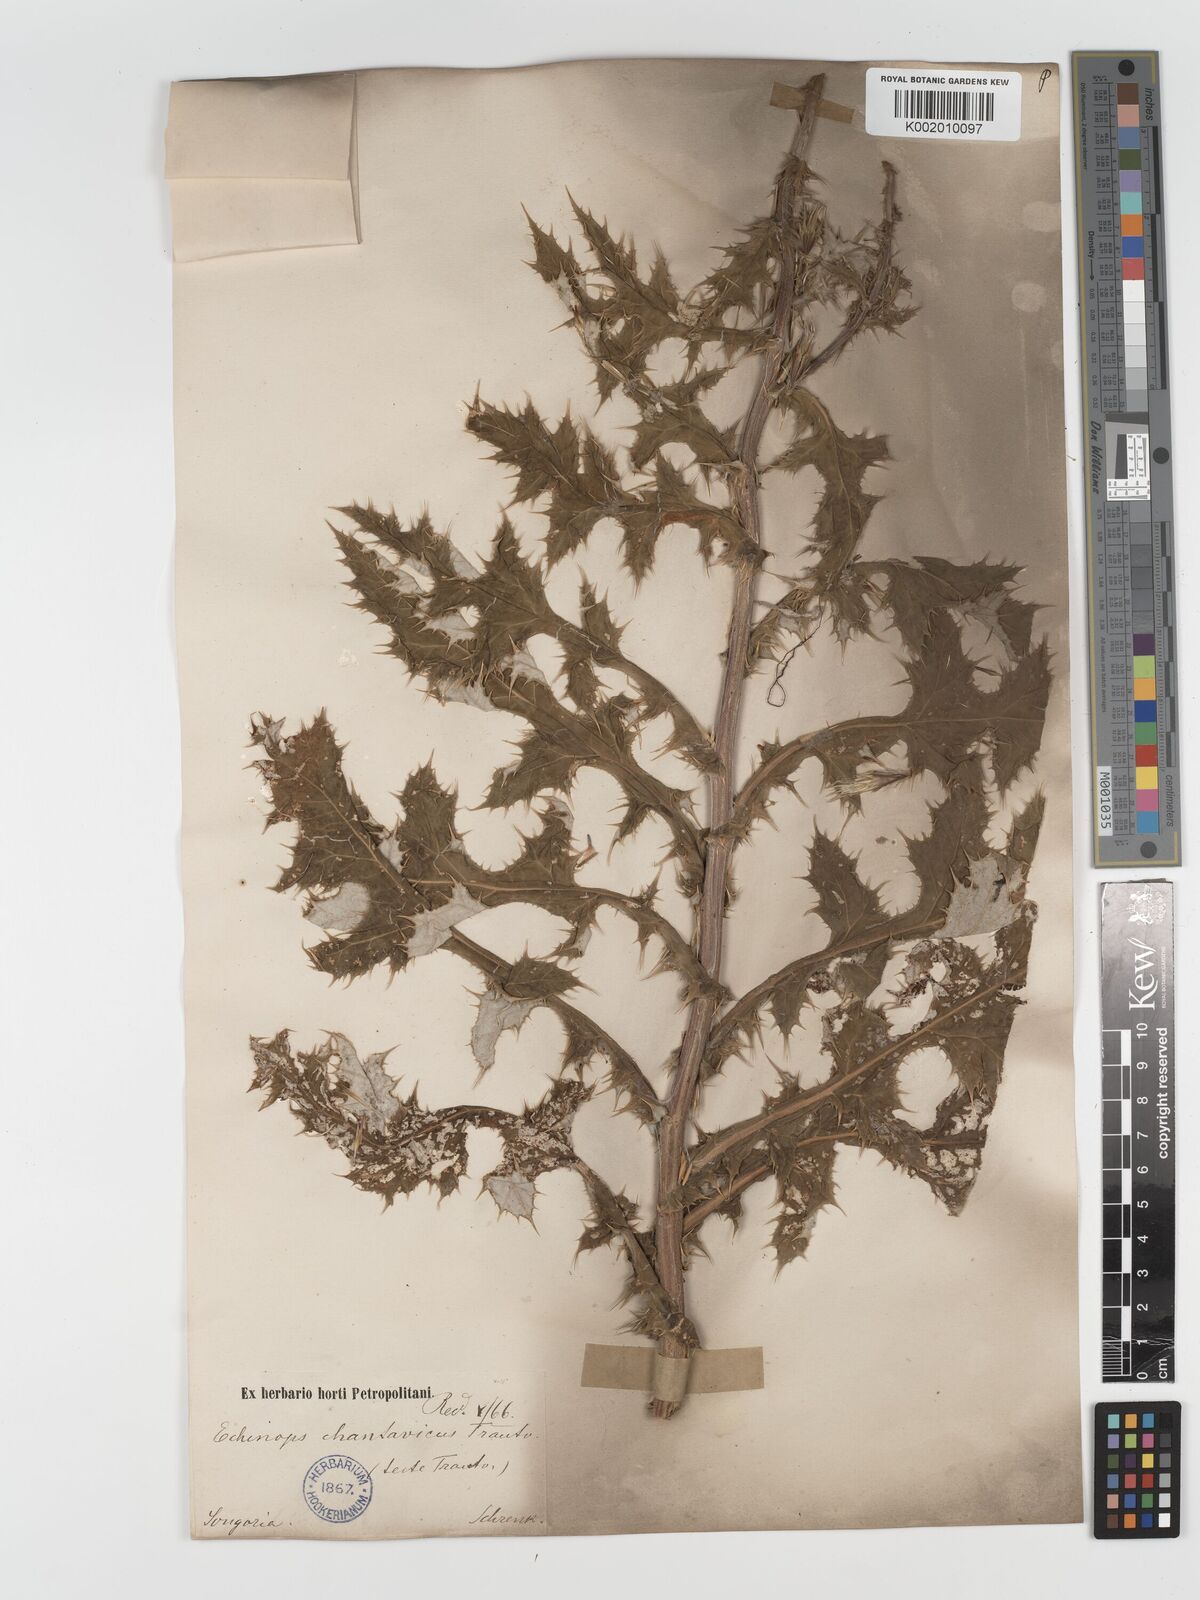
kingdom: Plantae
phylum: Tracheophyta
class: Magnoliopsida
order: Asterales
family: Asteraceae
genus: Echinops
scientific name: Echinops chantavicus
